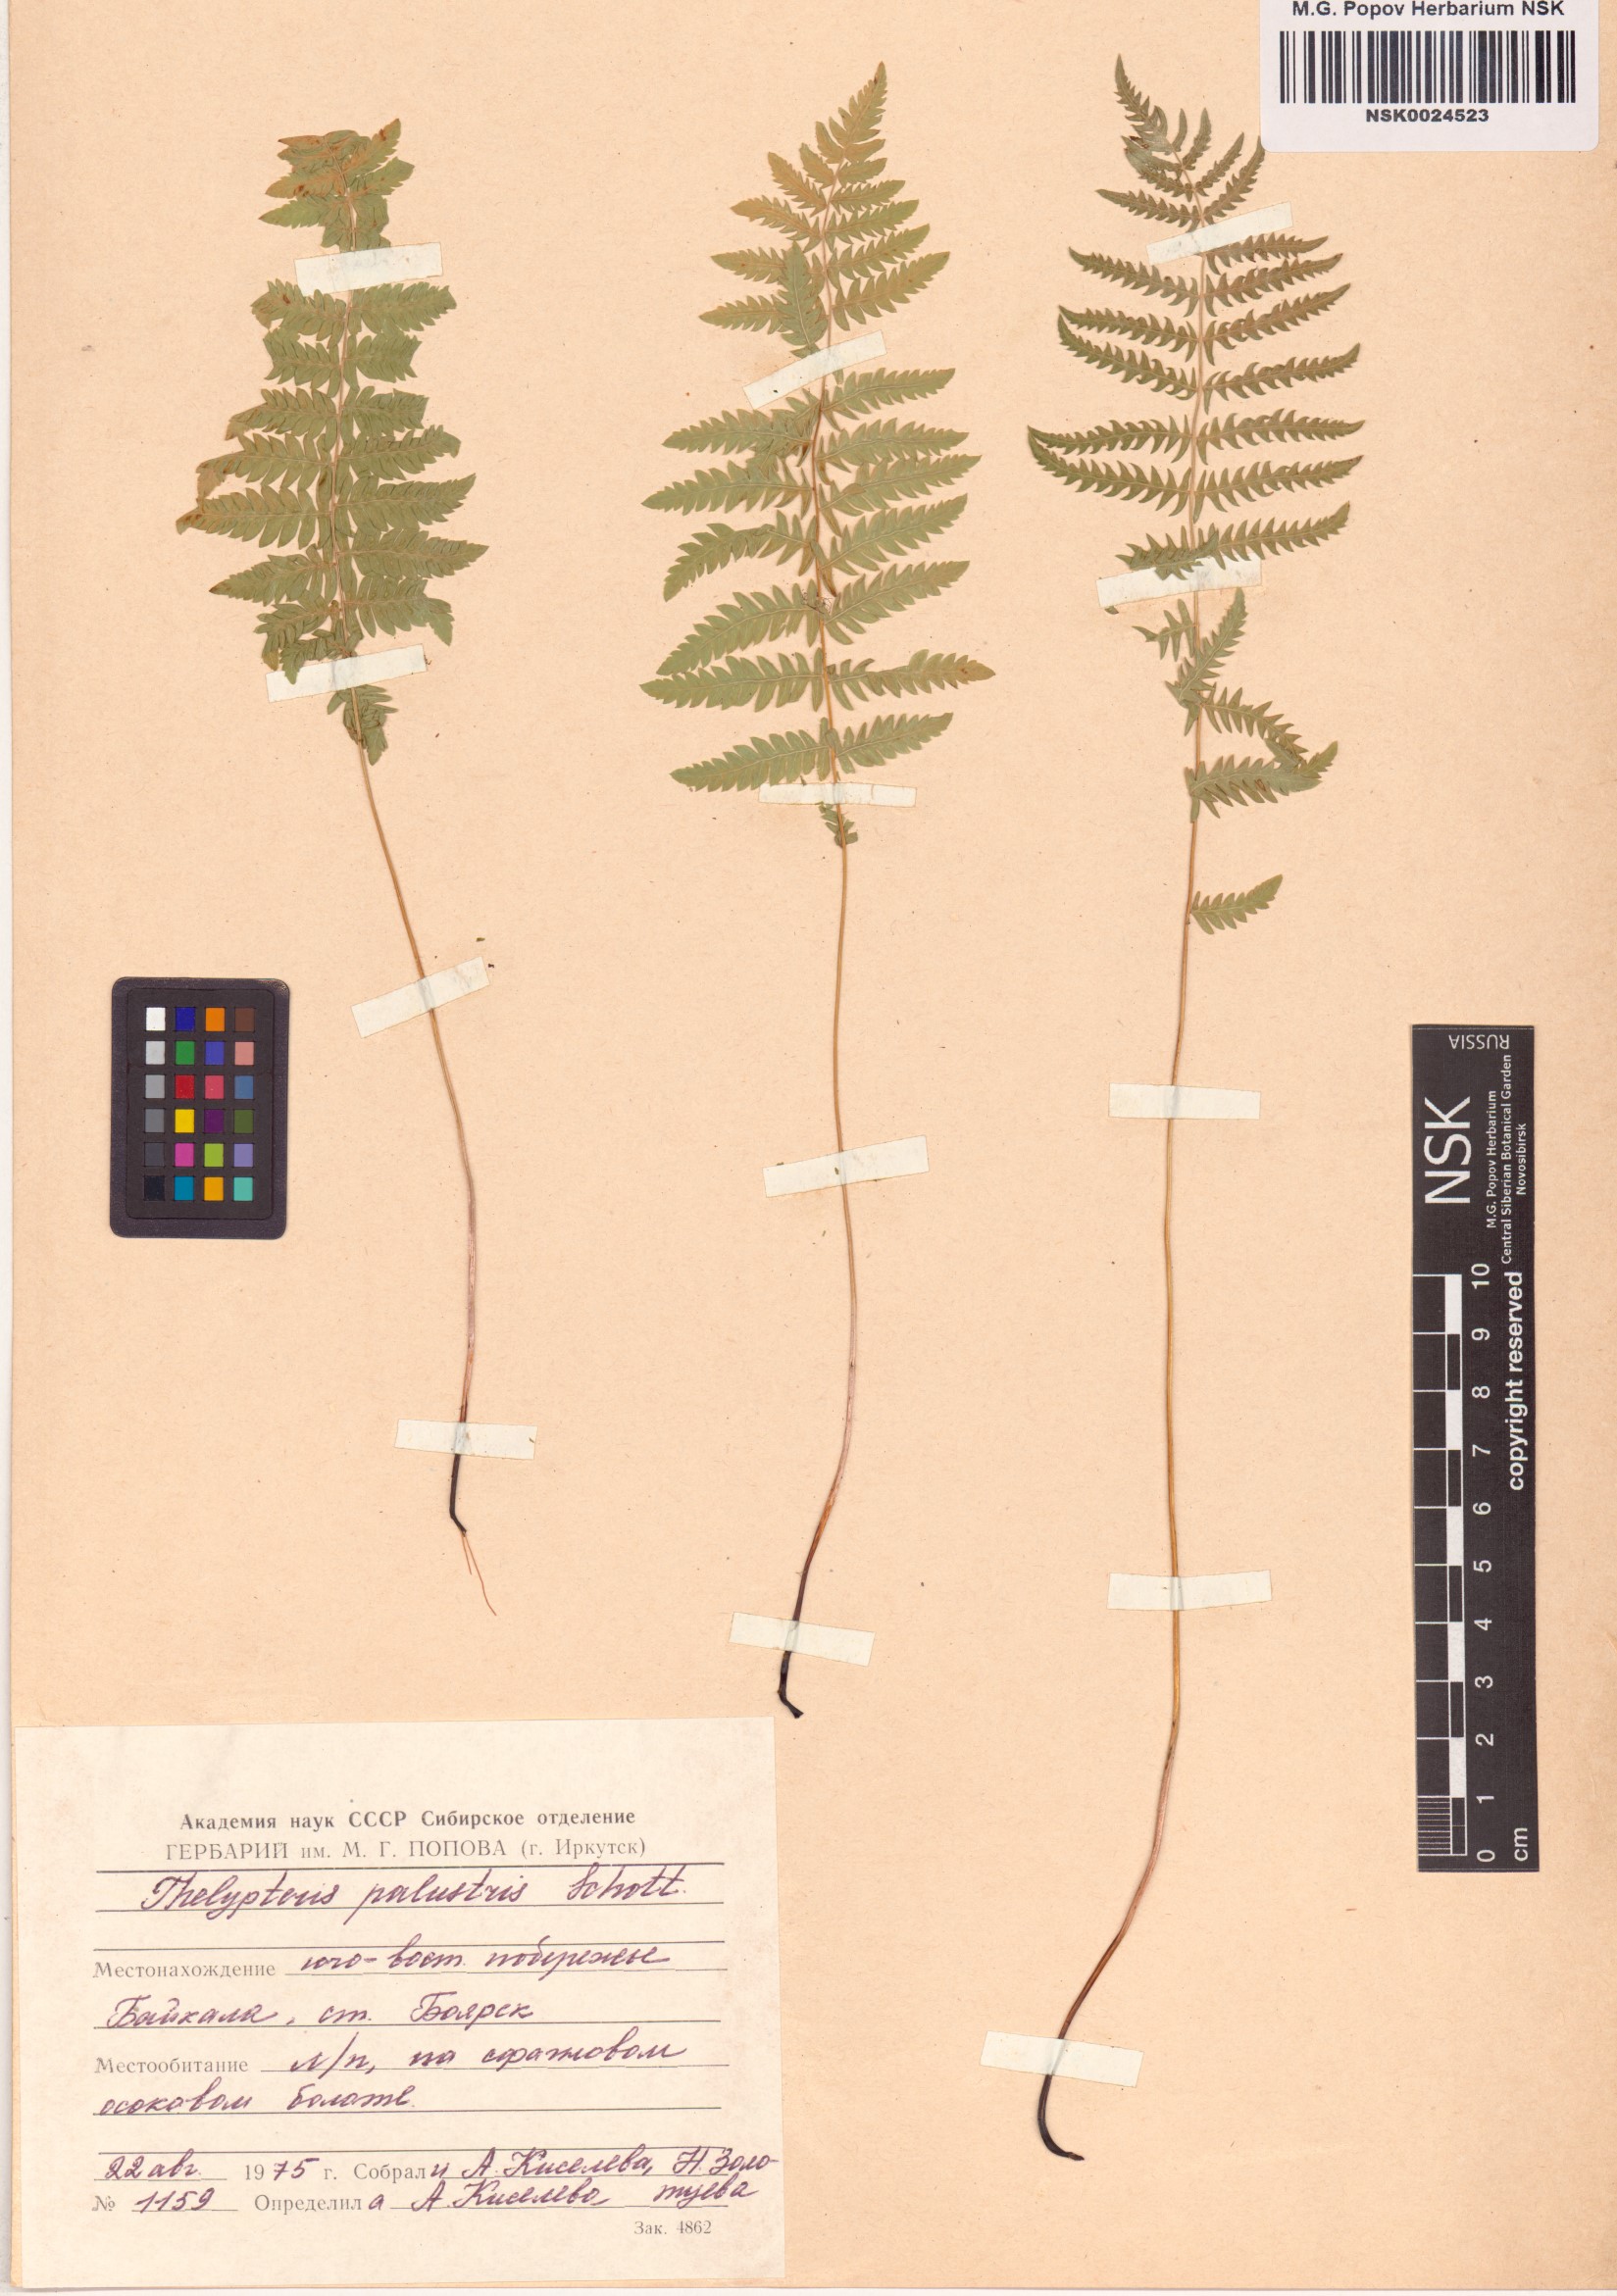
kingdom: Plantae
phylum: Tracheophyta
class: Polypodiopsida
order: Polypodiales
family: Thelypteridaceae
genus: Thelypteris
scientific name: Thelypteris palustris
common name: Marsh fern
